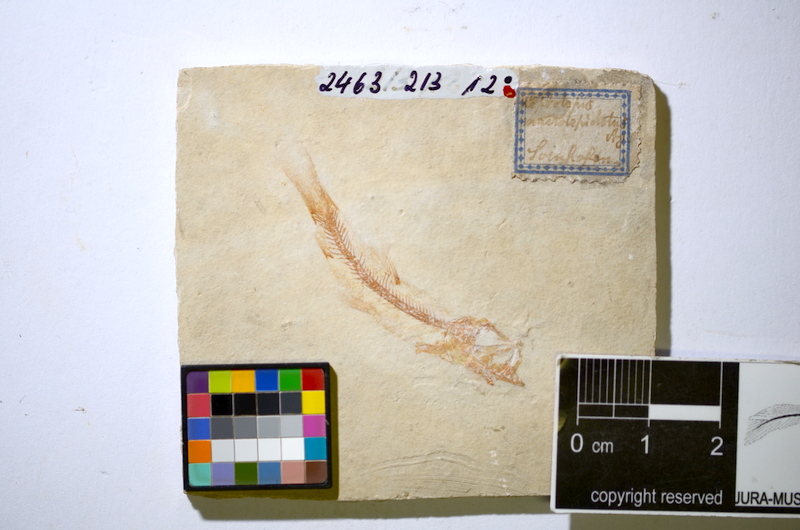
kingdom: Animalia
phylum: Chordata
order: Salmoniformes
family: Orthogonikleithridae
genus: Leptolepides
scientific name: Leptolepides sprattiformis
